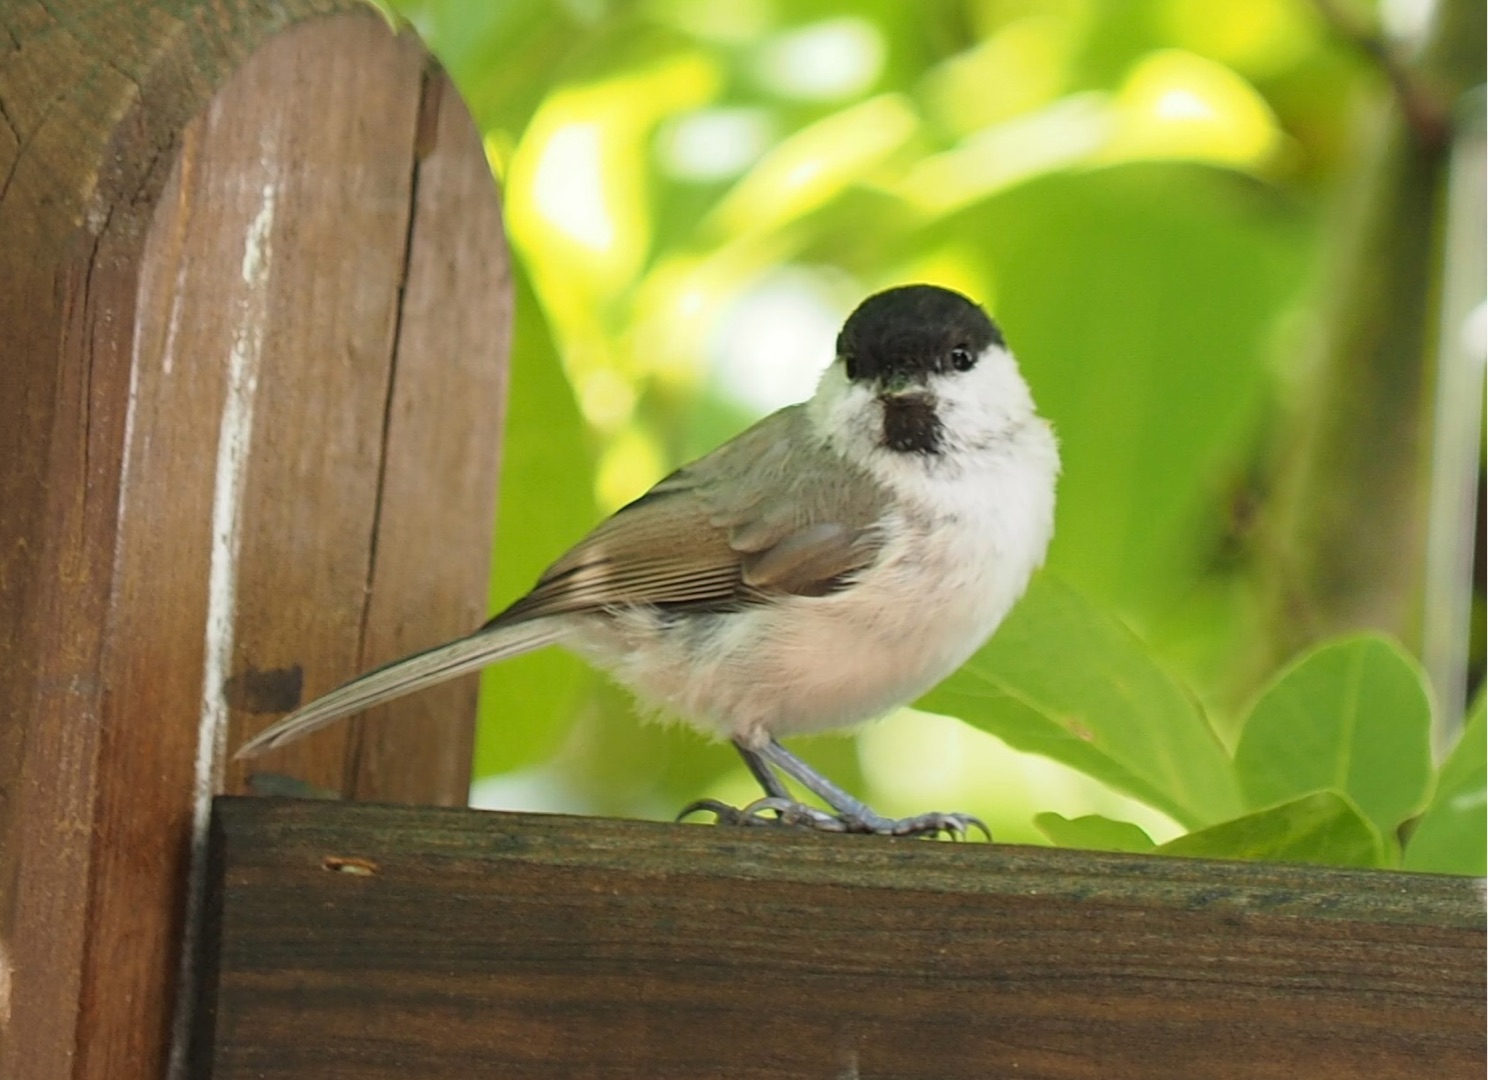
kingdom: Animalia
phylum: Chordata
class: Aves
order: Passeriformes
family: Paridae
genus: Poecile
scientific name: Poecile palustris
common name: Sumpmejse
